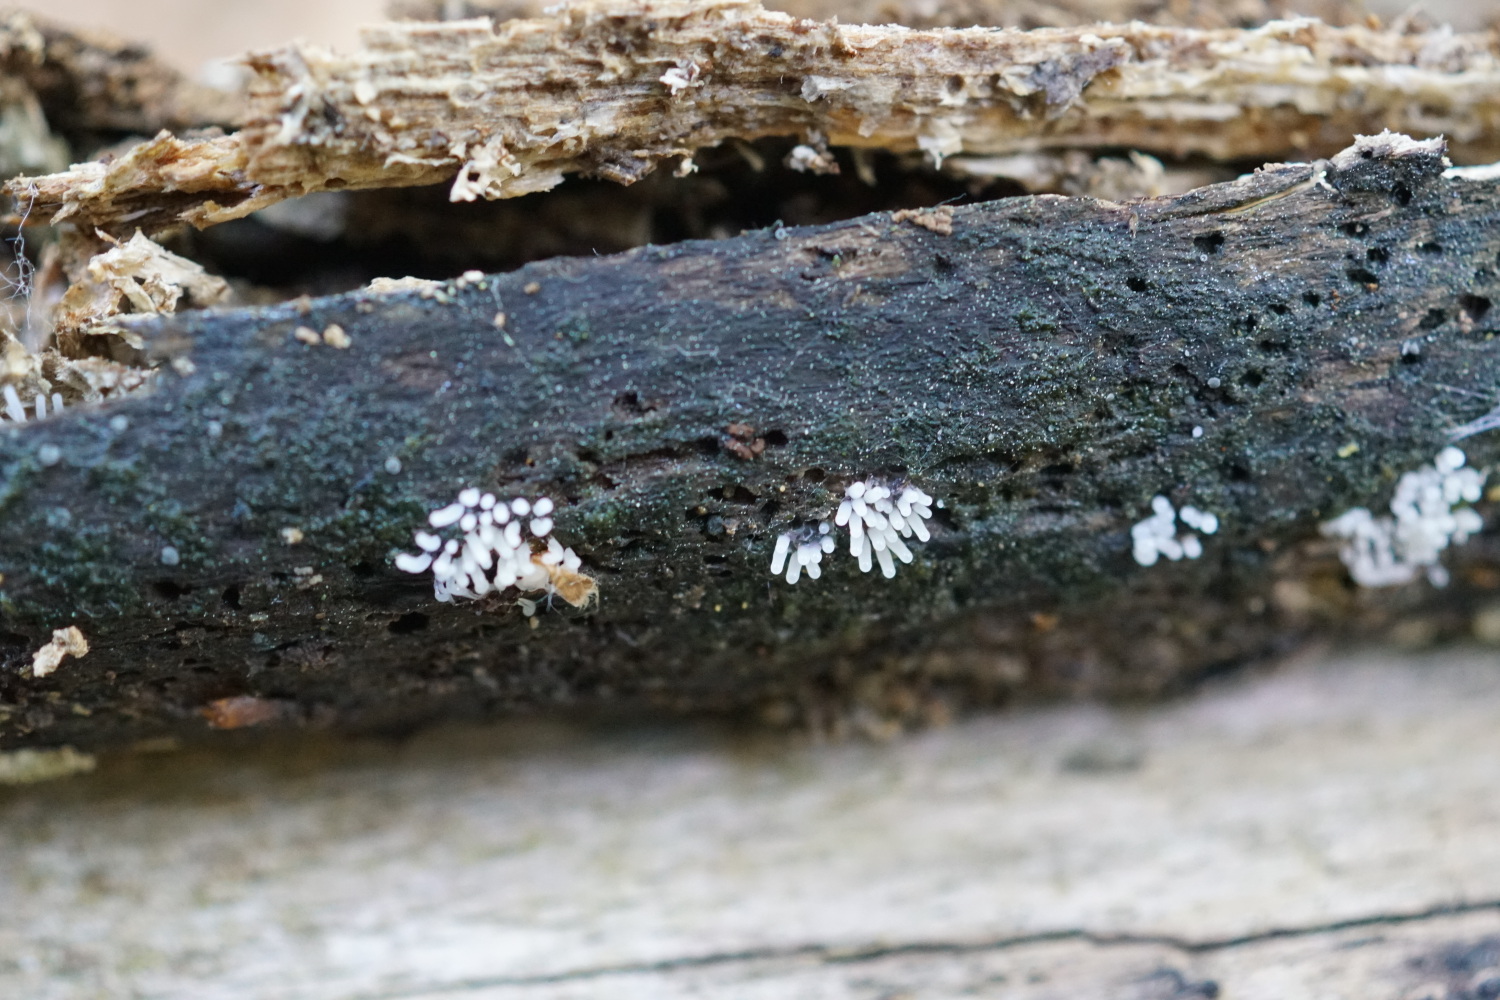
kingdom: Protozoa
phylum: Mycetozoa
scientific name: Mycetozoa
